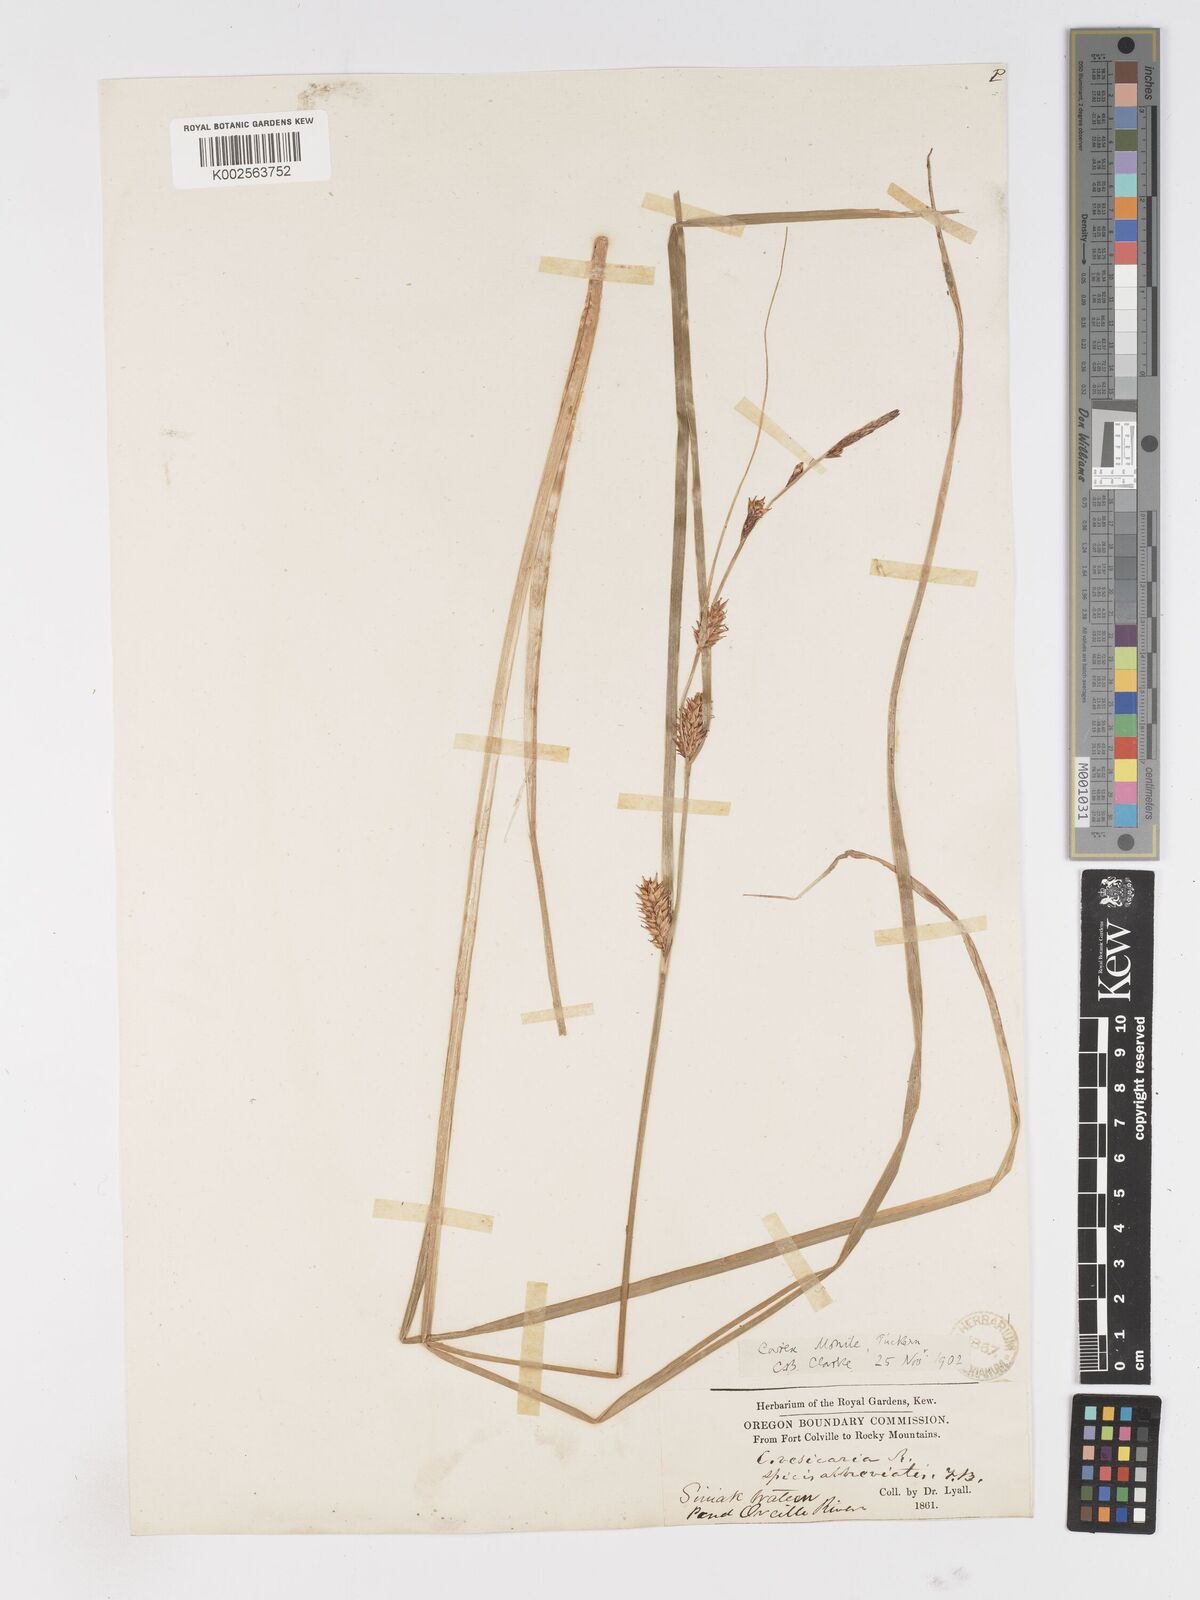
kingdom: Plantae
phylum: Tracheophyta
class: Liliopsida
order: Poales
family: Cyperaceae
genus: Carex
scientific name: Carex vesicaria
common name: Bladder-sedge
